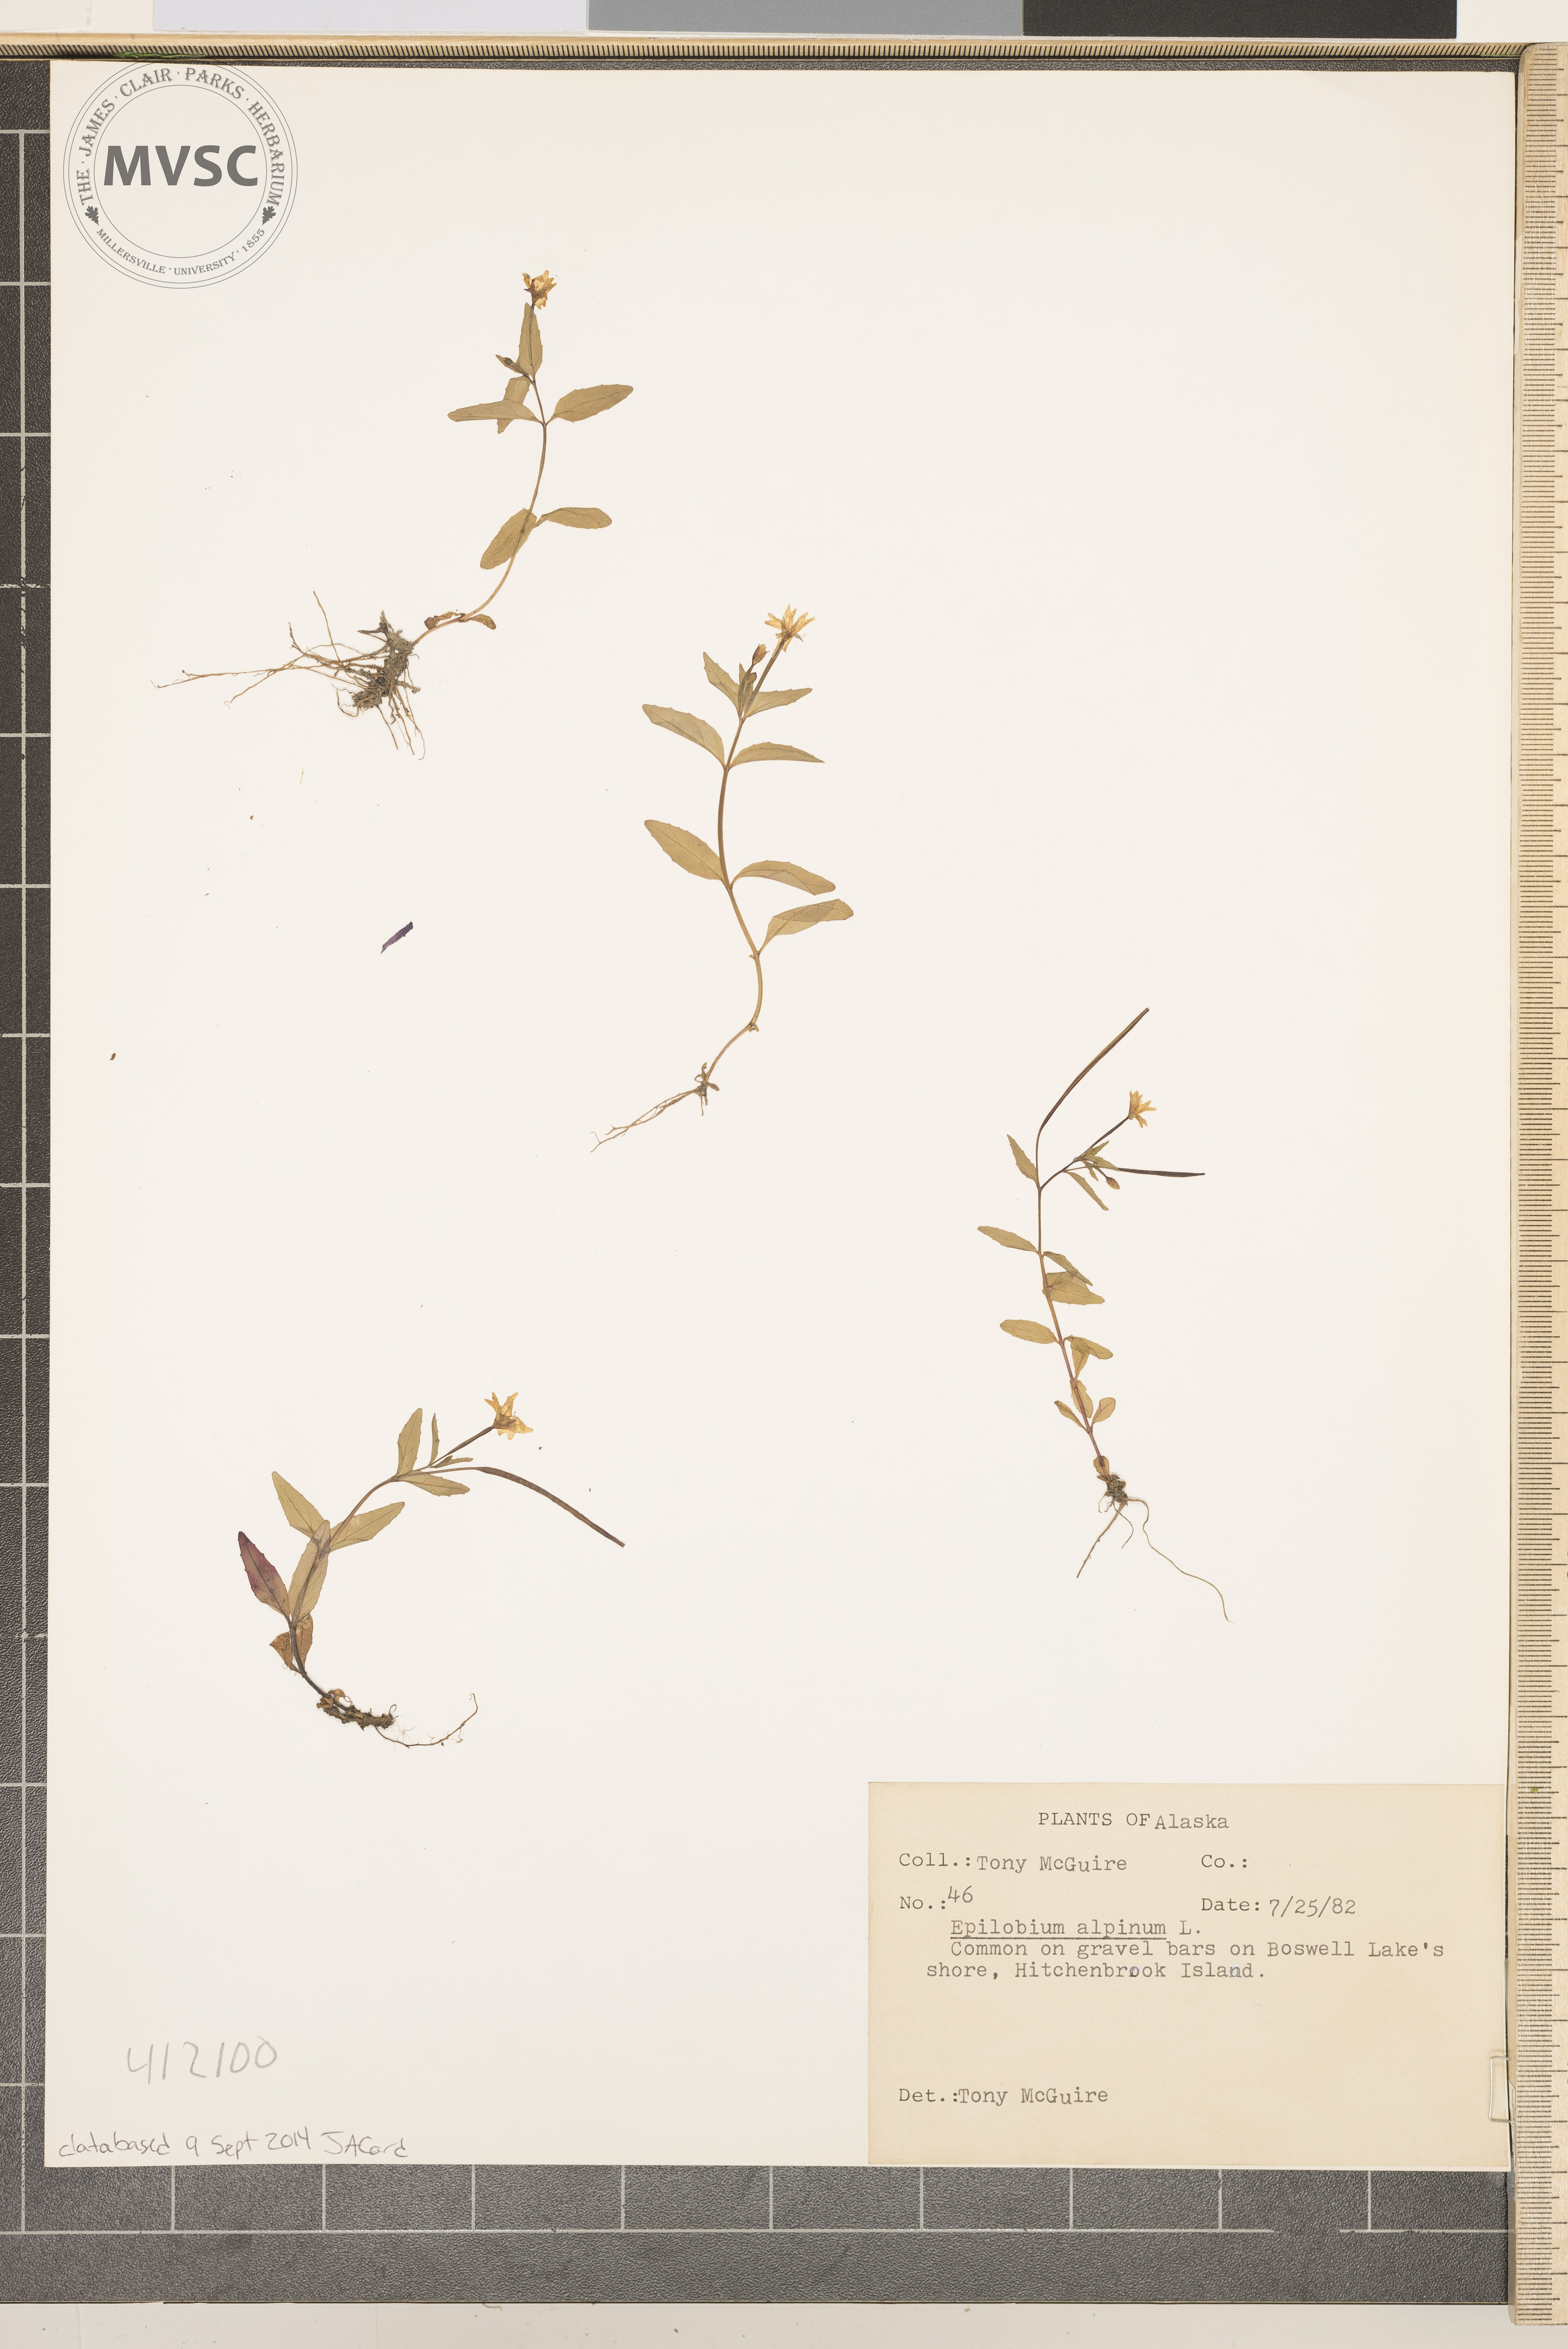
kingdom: Plantae
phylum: Tracheophyta
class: Magnoliopsida
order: Myrtales
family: Onagraceae
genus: Epilobium
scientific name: Epilobium
